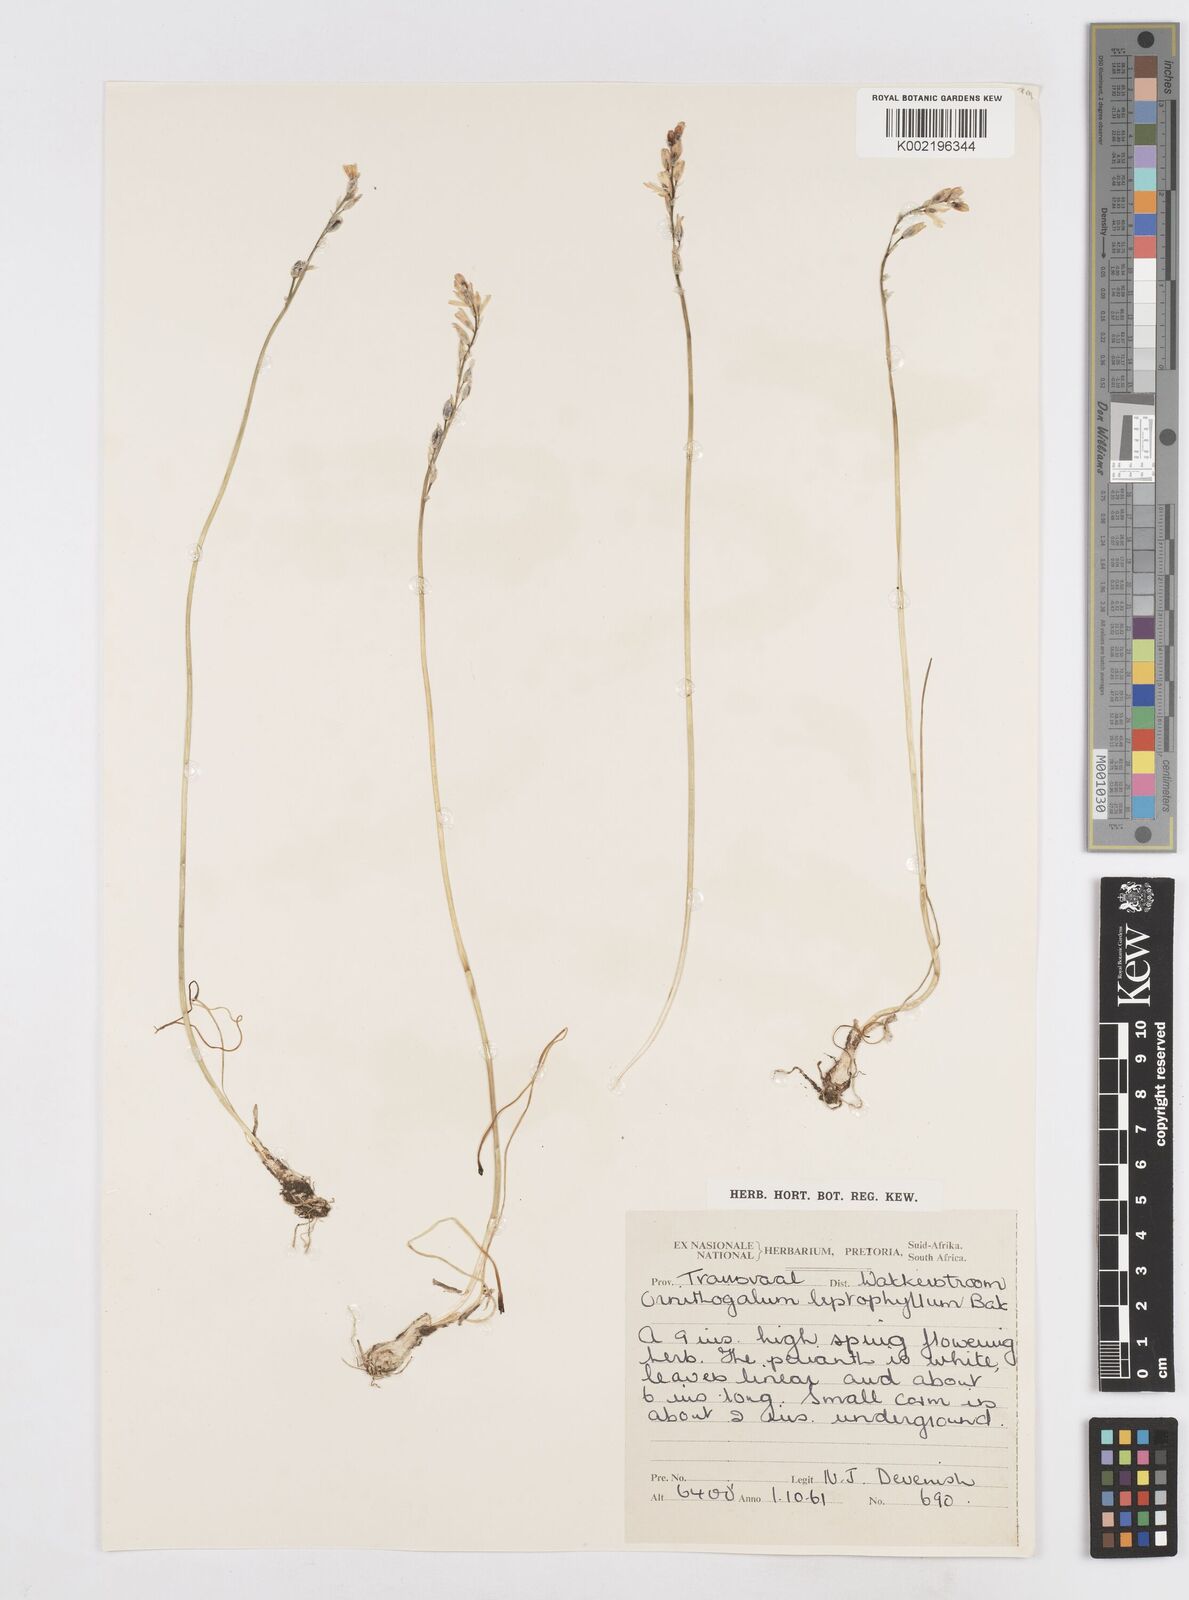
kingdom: Plantae
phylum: Tracheophyta
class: Liliopsida
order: Asparagales
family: Asparagaceae
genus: Ornithogalum
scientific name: Ornithogalum juncifolium
